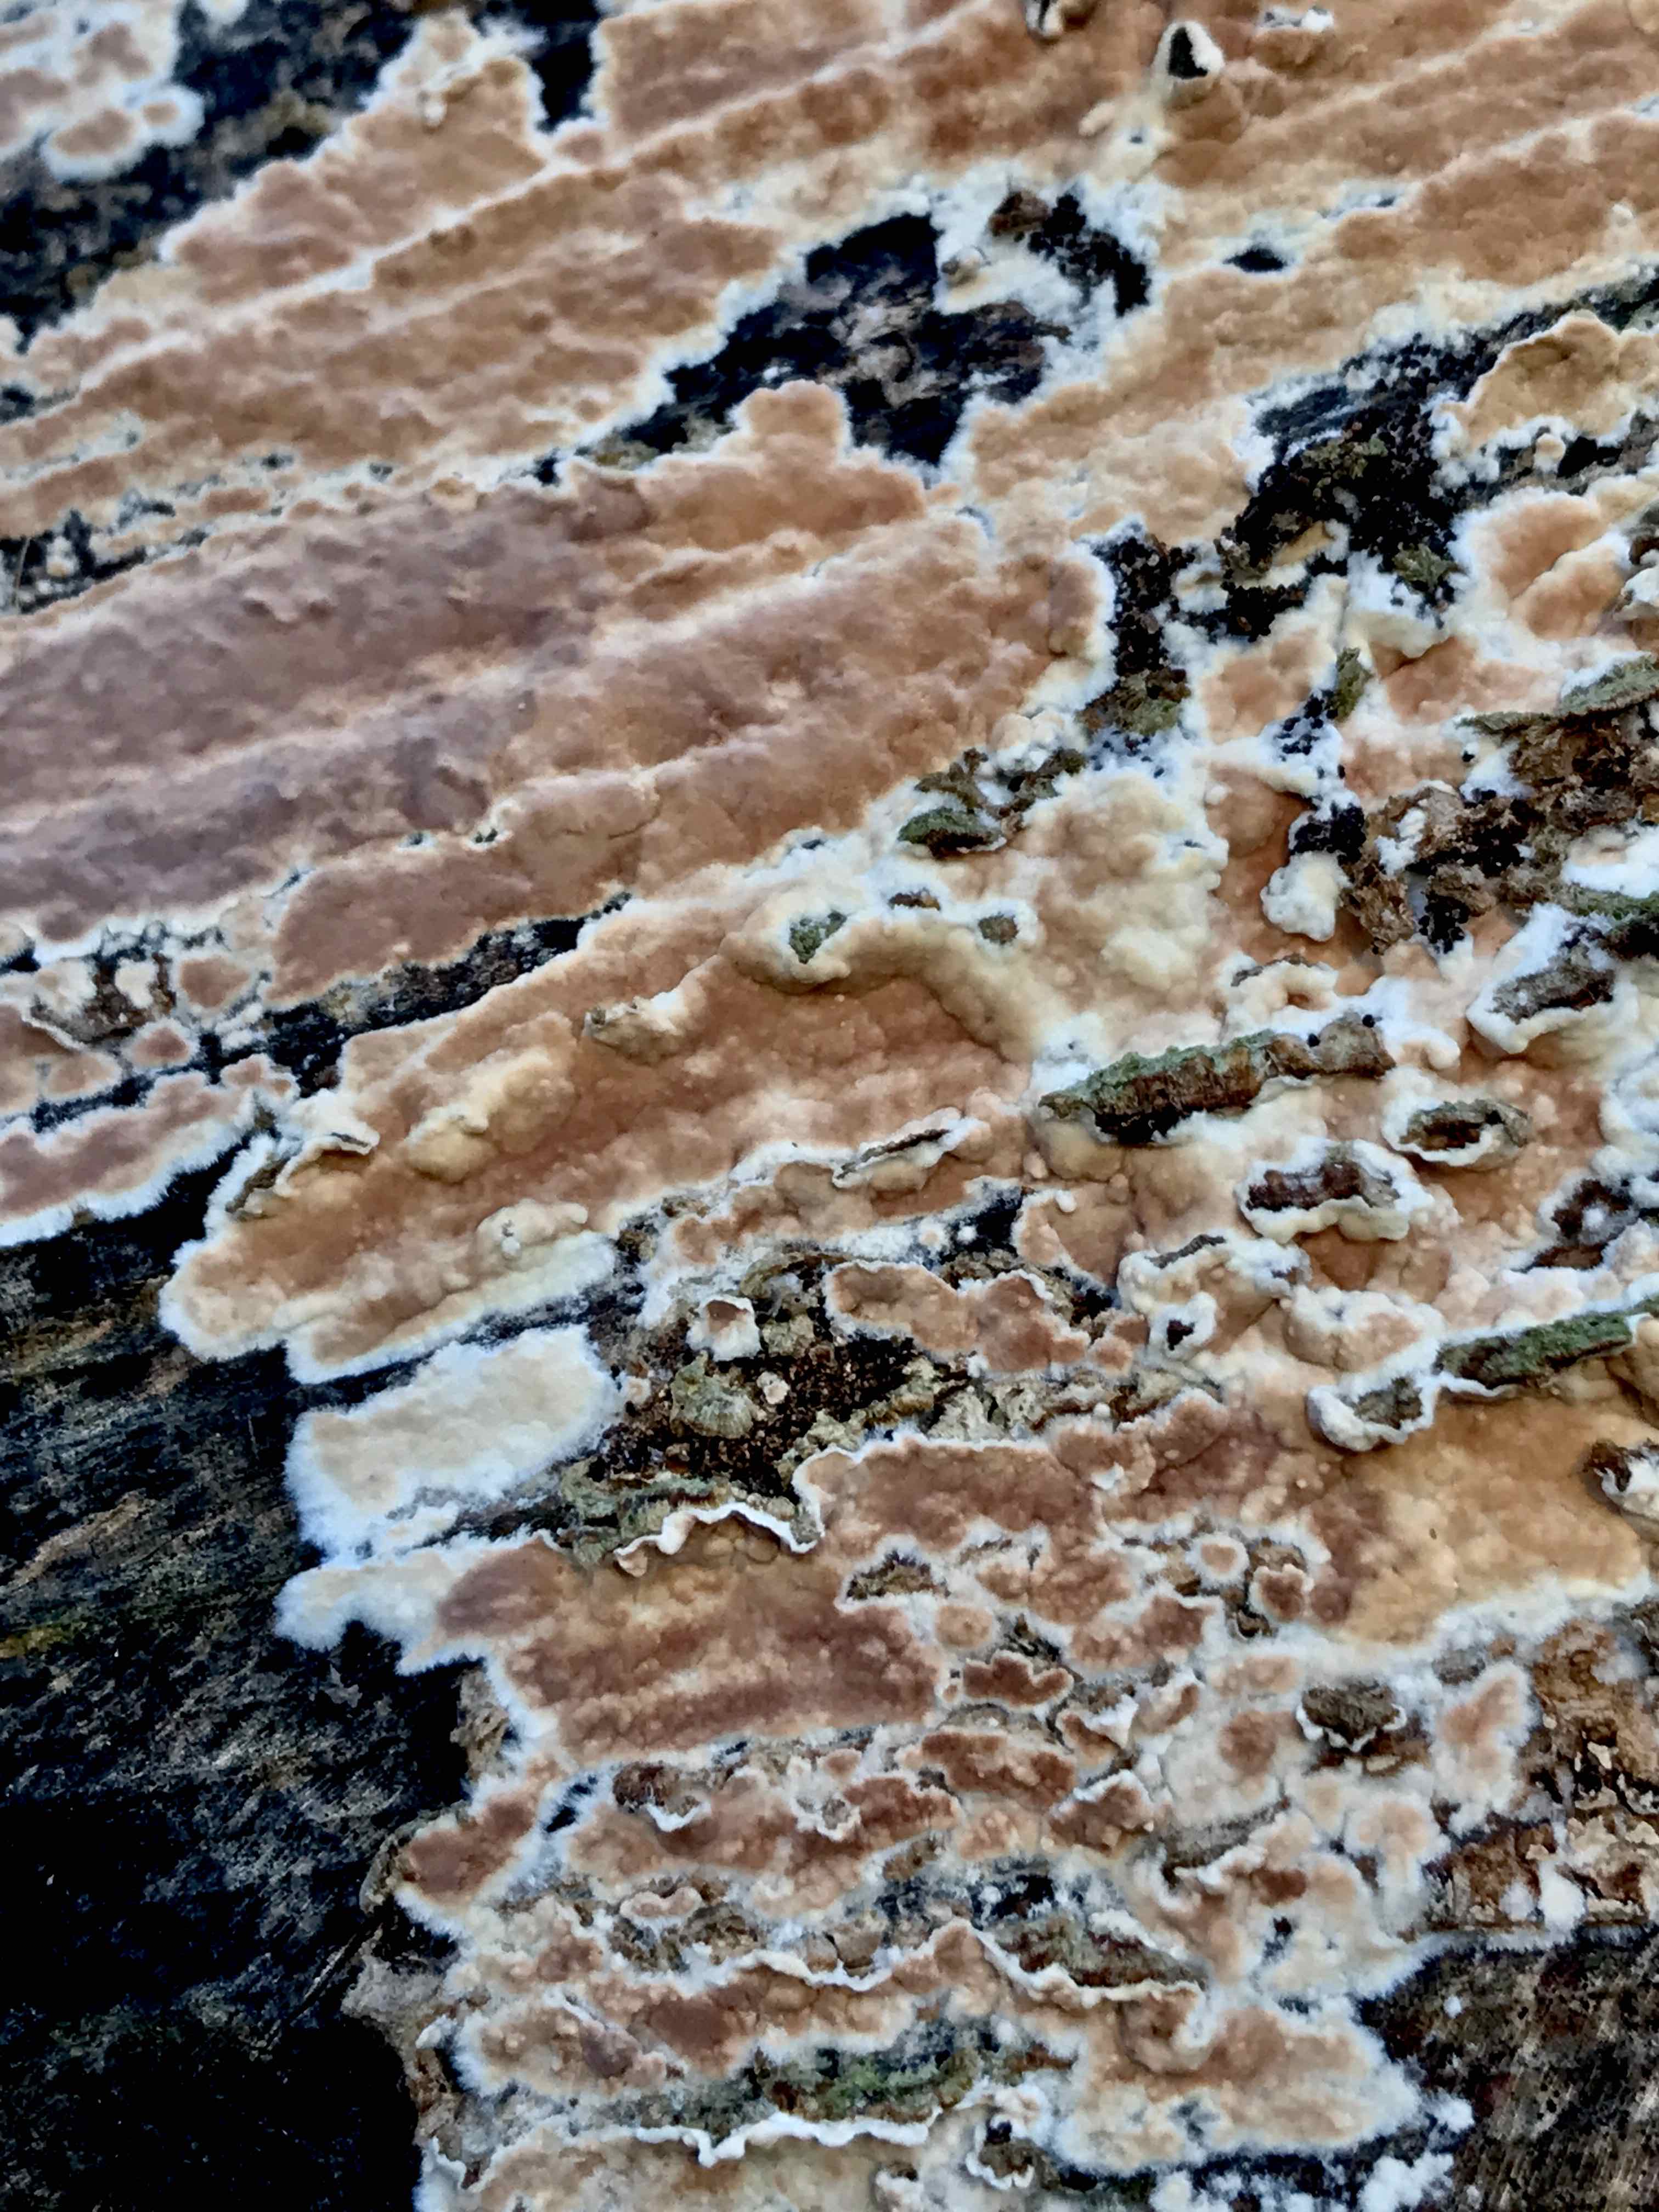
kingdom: Fungi
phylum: Basidiomycota
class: Agaricomycetes
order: Agaricales
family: Physalacriaceae
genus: Cylindrobasidium
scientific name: Cylindrobasidium evolvens
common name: sprækkehinde
